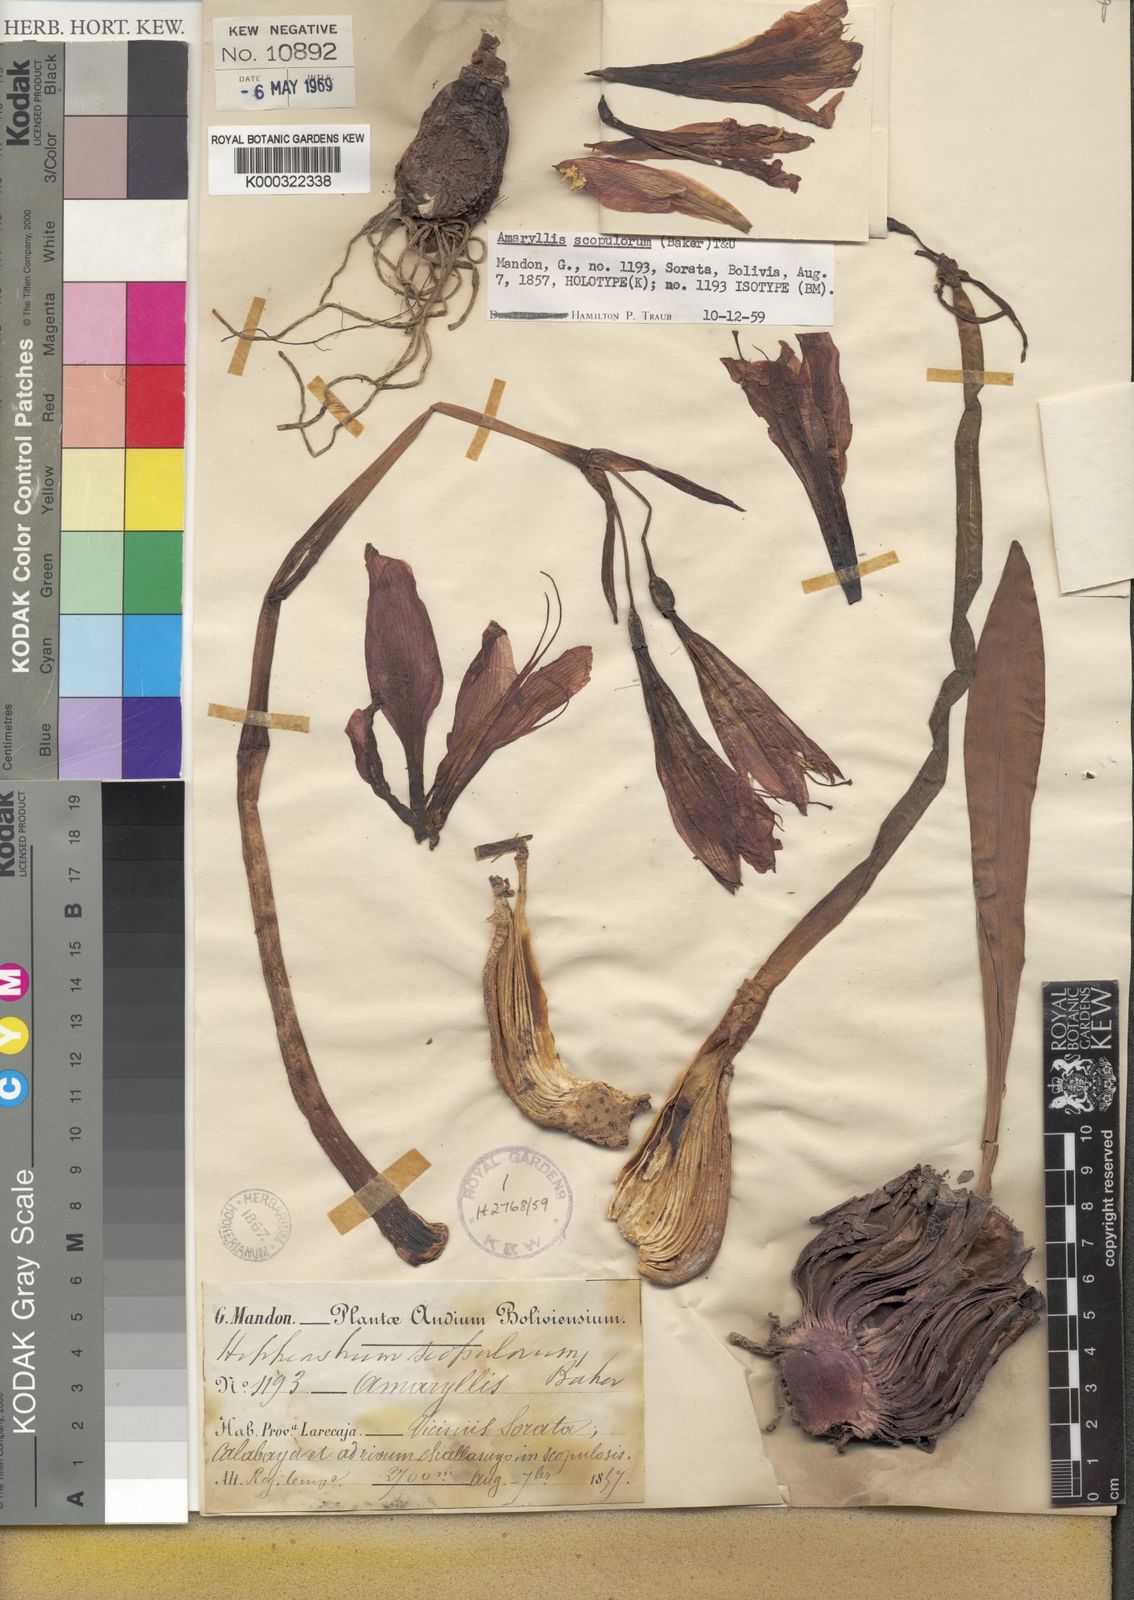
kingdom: Plantae
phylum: Tracheophyta
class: Liliopsida
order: Asparagales
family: Amaryllidaceae
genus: Hippeastrum
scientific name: Hippeastrum scopulorum
